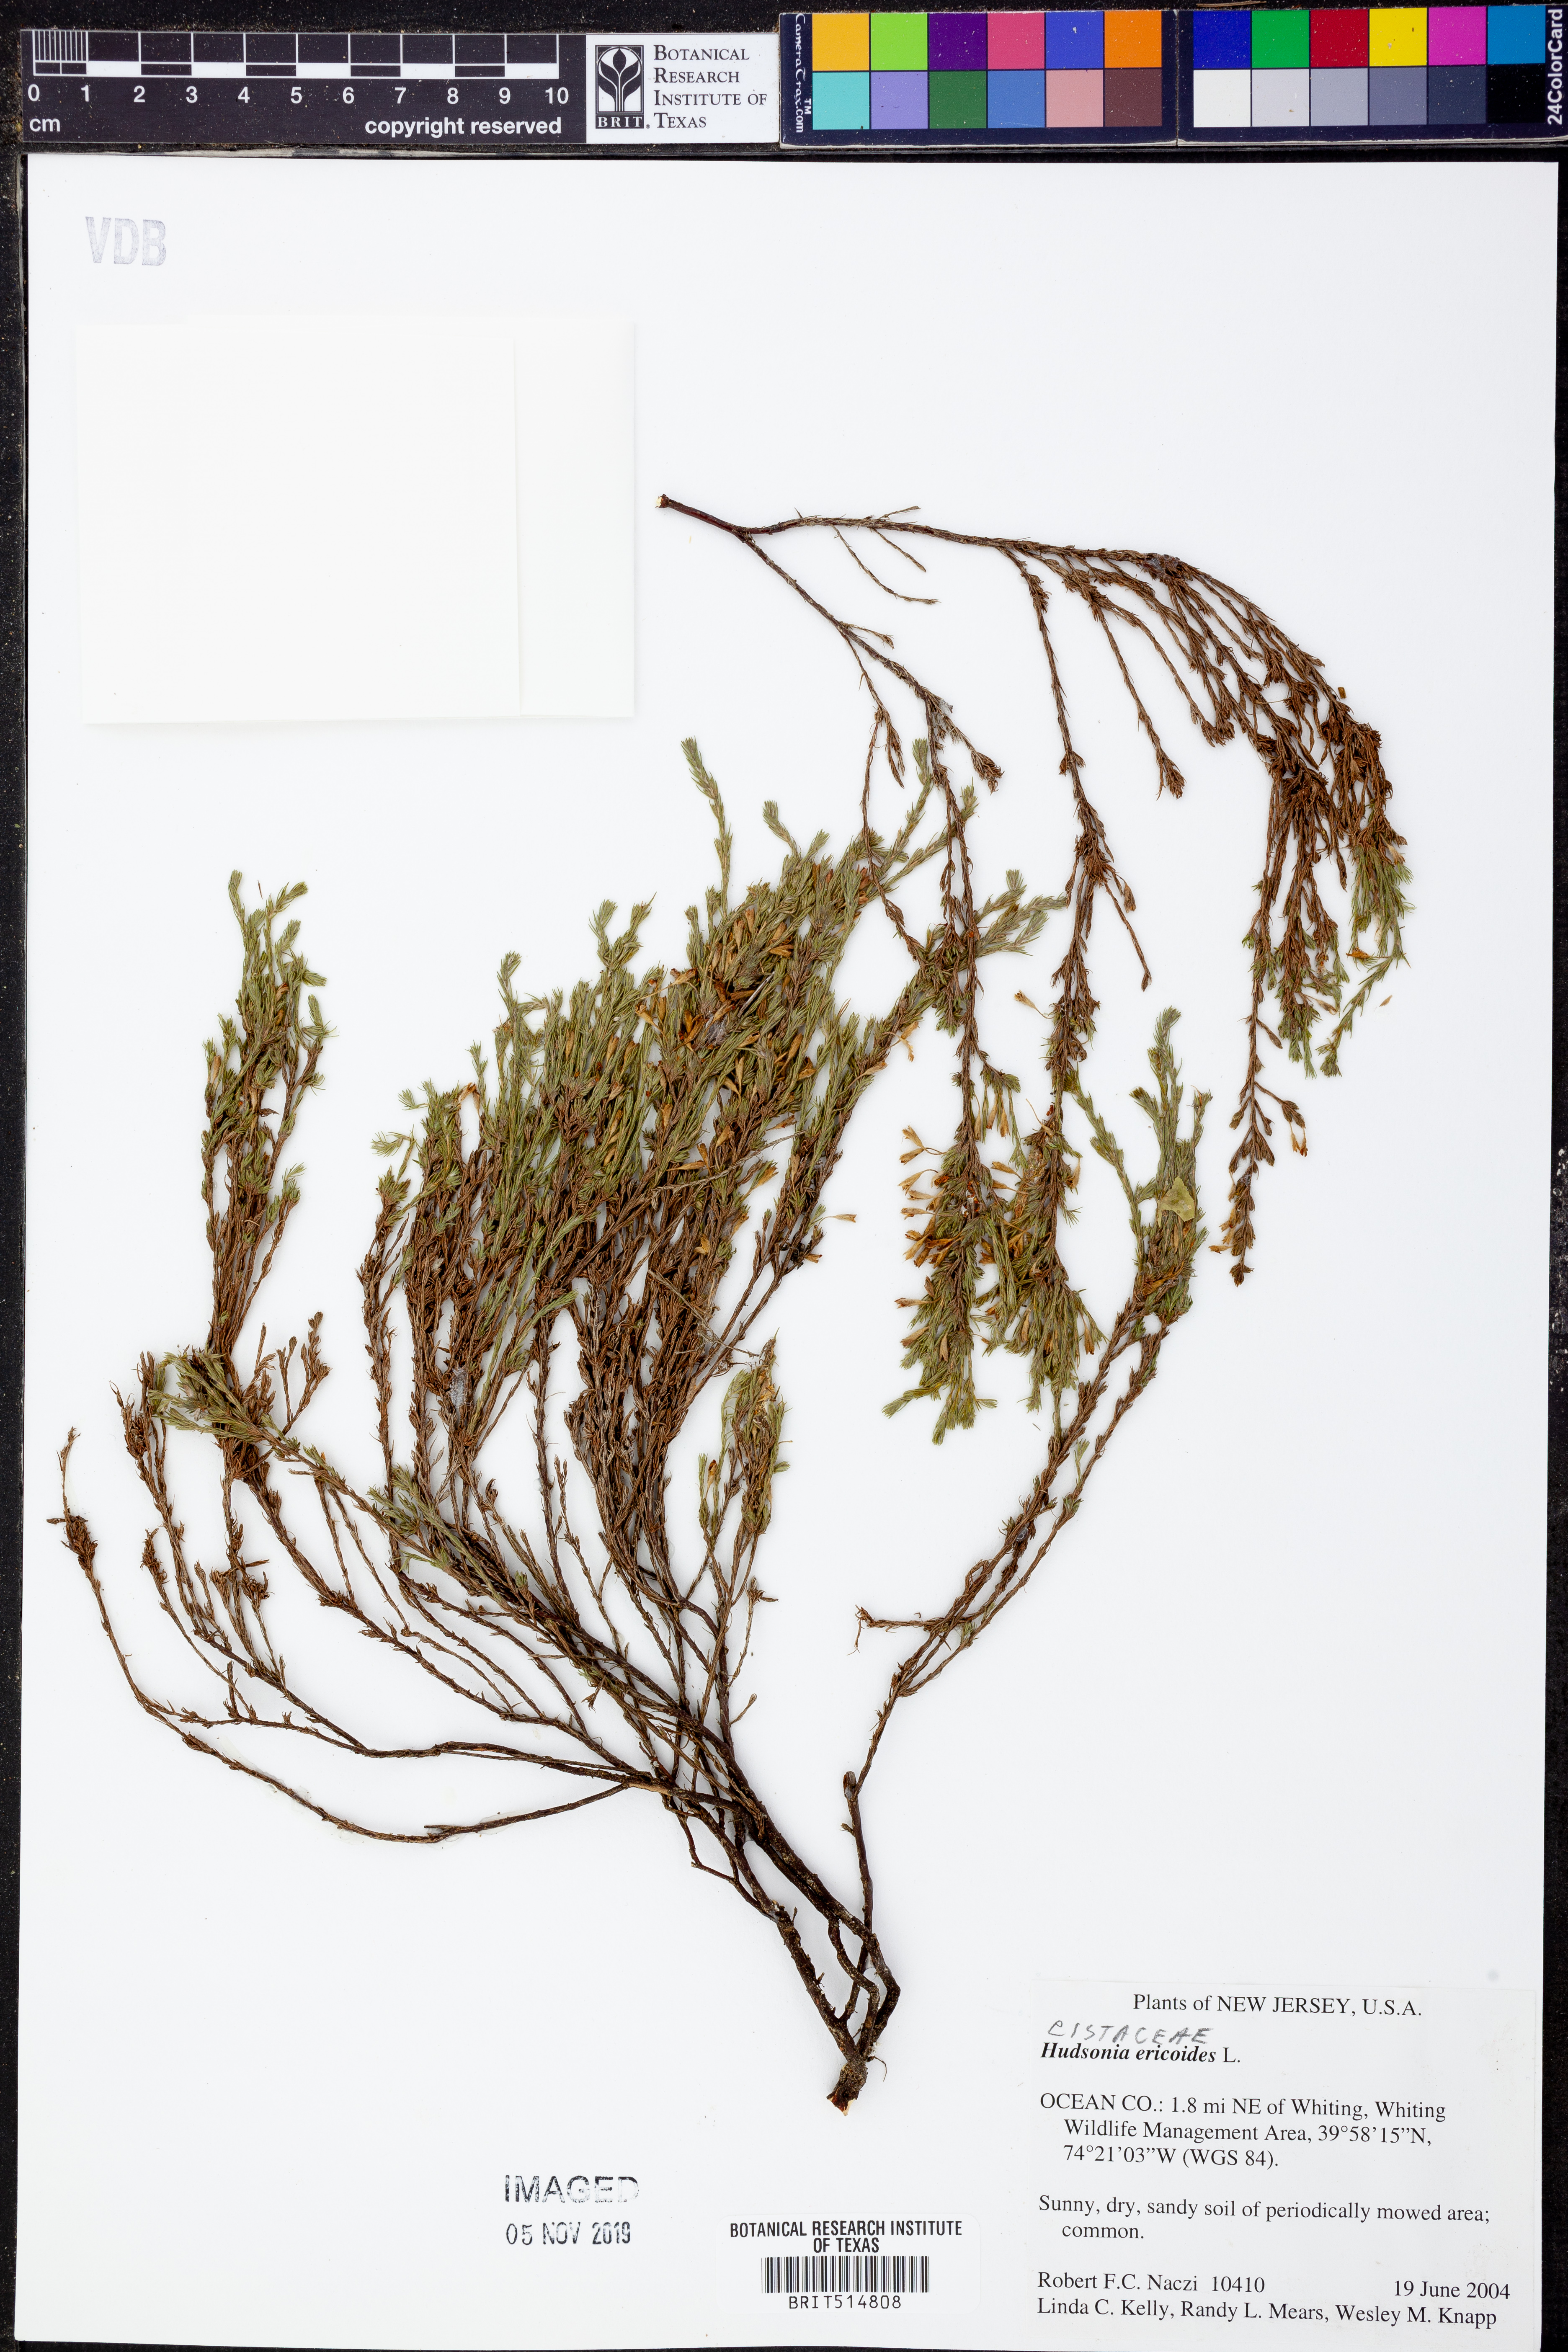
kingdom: Plantae
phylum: Tracheophyta
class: Magnoliopsida
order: Malvales
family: Cistaceae
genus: Hudsonia
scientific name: Hudsonia ericoides
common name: Golden-heather
